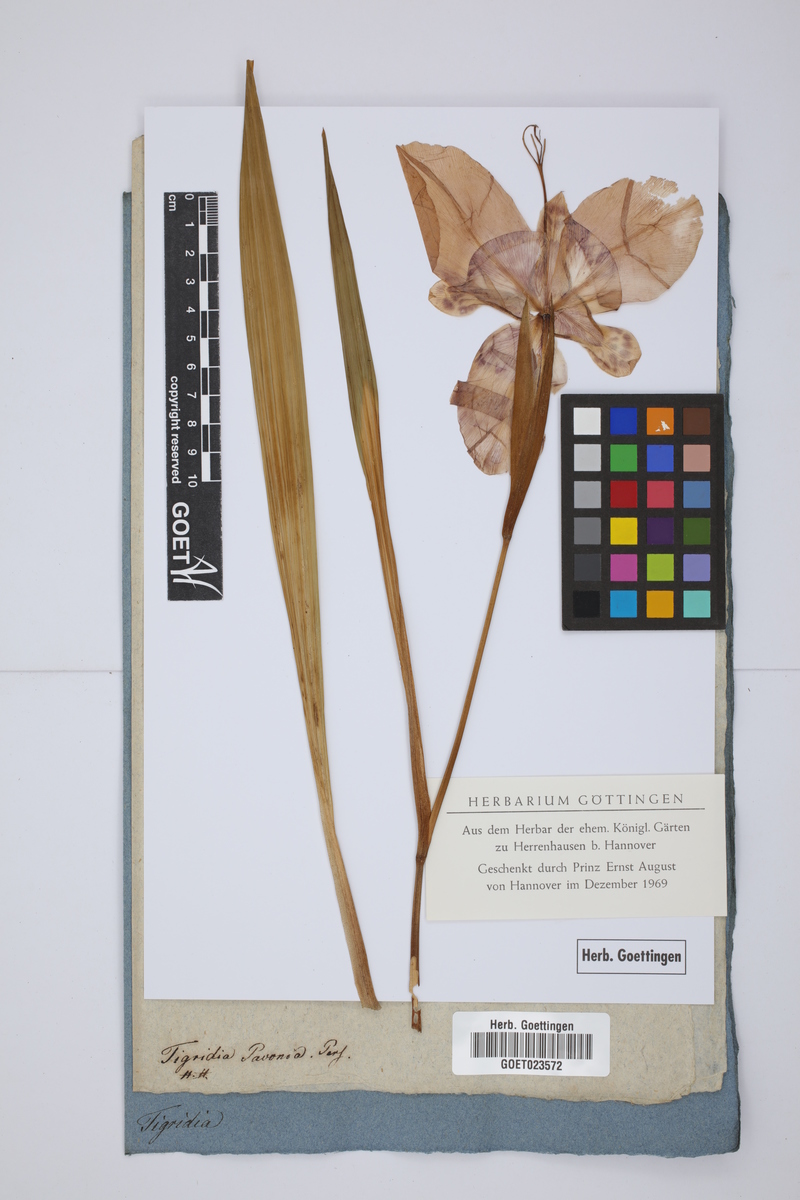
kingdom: Plantae
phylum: Tracheophyta
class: Liliopsida
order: Asparagales
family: Iridaceae
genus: Tigridia
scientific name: Tigridia pavonia
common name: Peacock-flower
